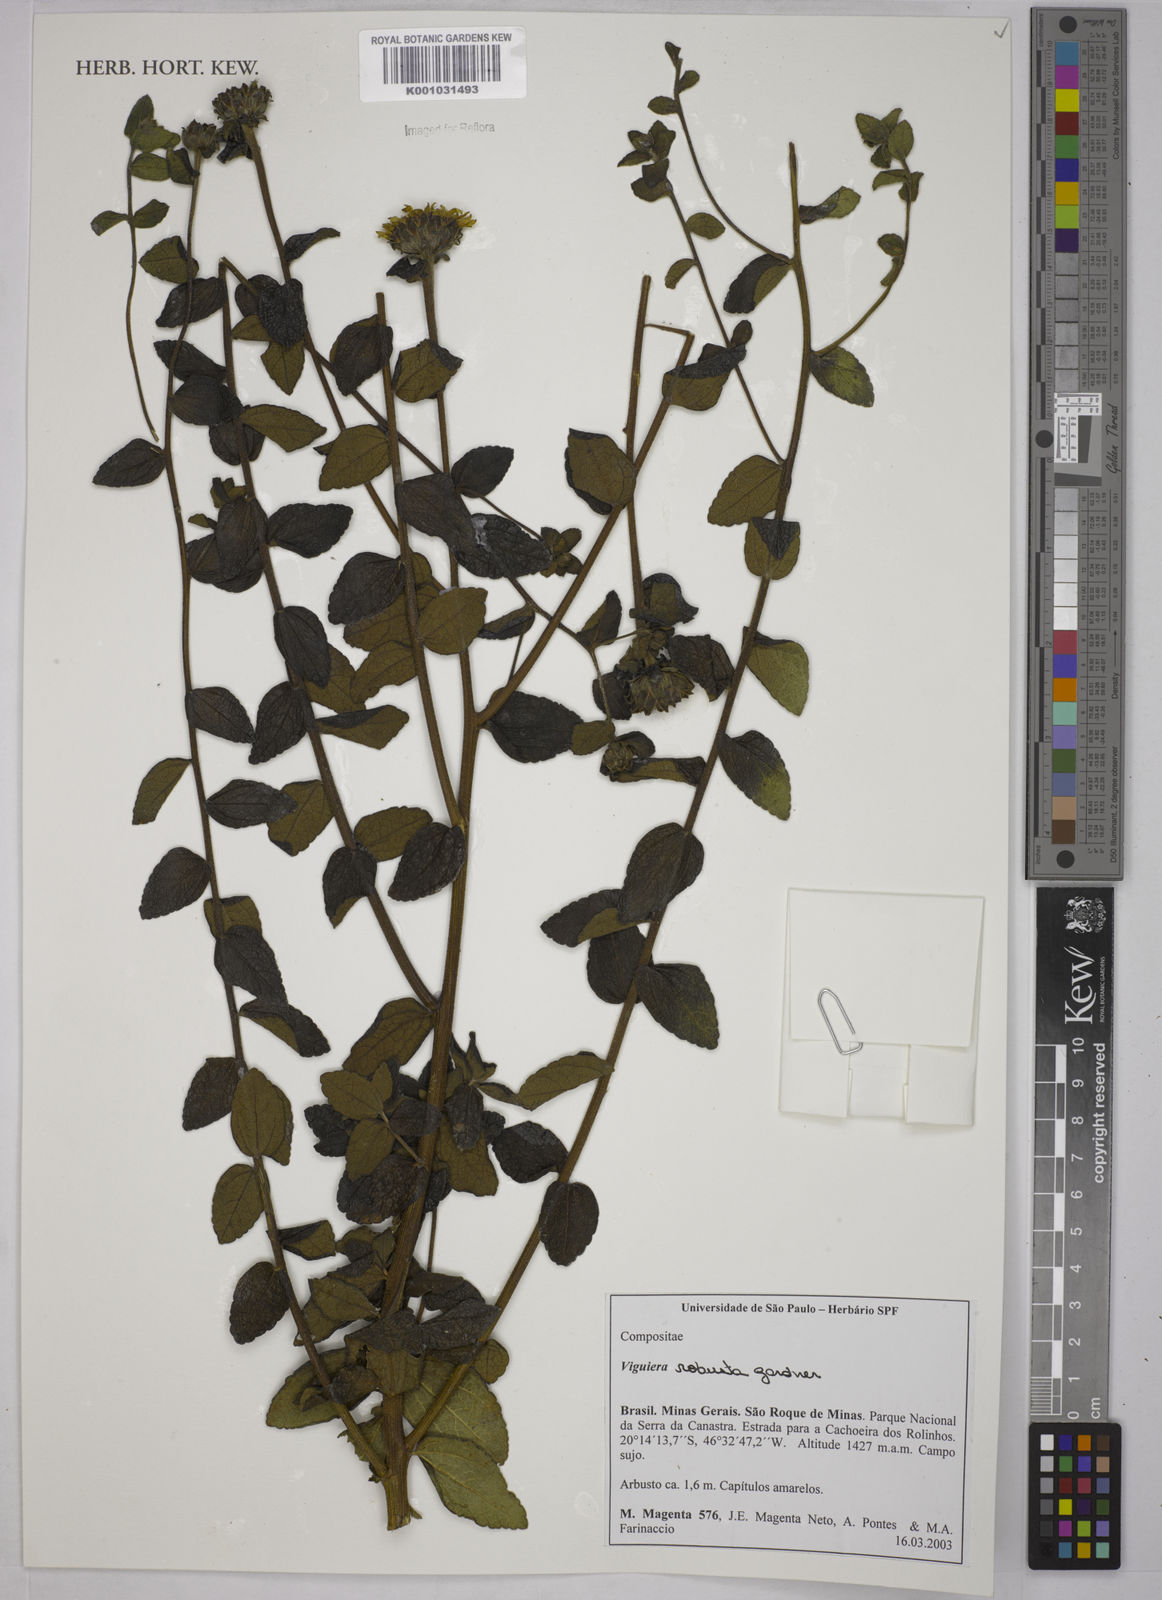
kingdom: Plantae
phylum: Tracheophyta
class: Magnoliopsida
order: Asterales
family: Asteraceae
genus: Aldama
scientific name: Aldama robusta
